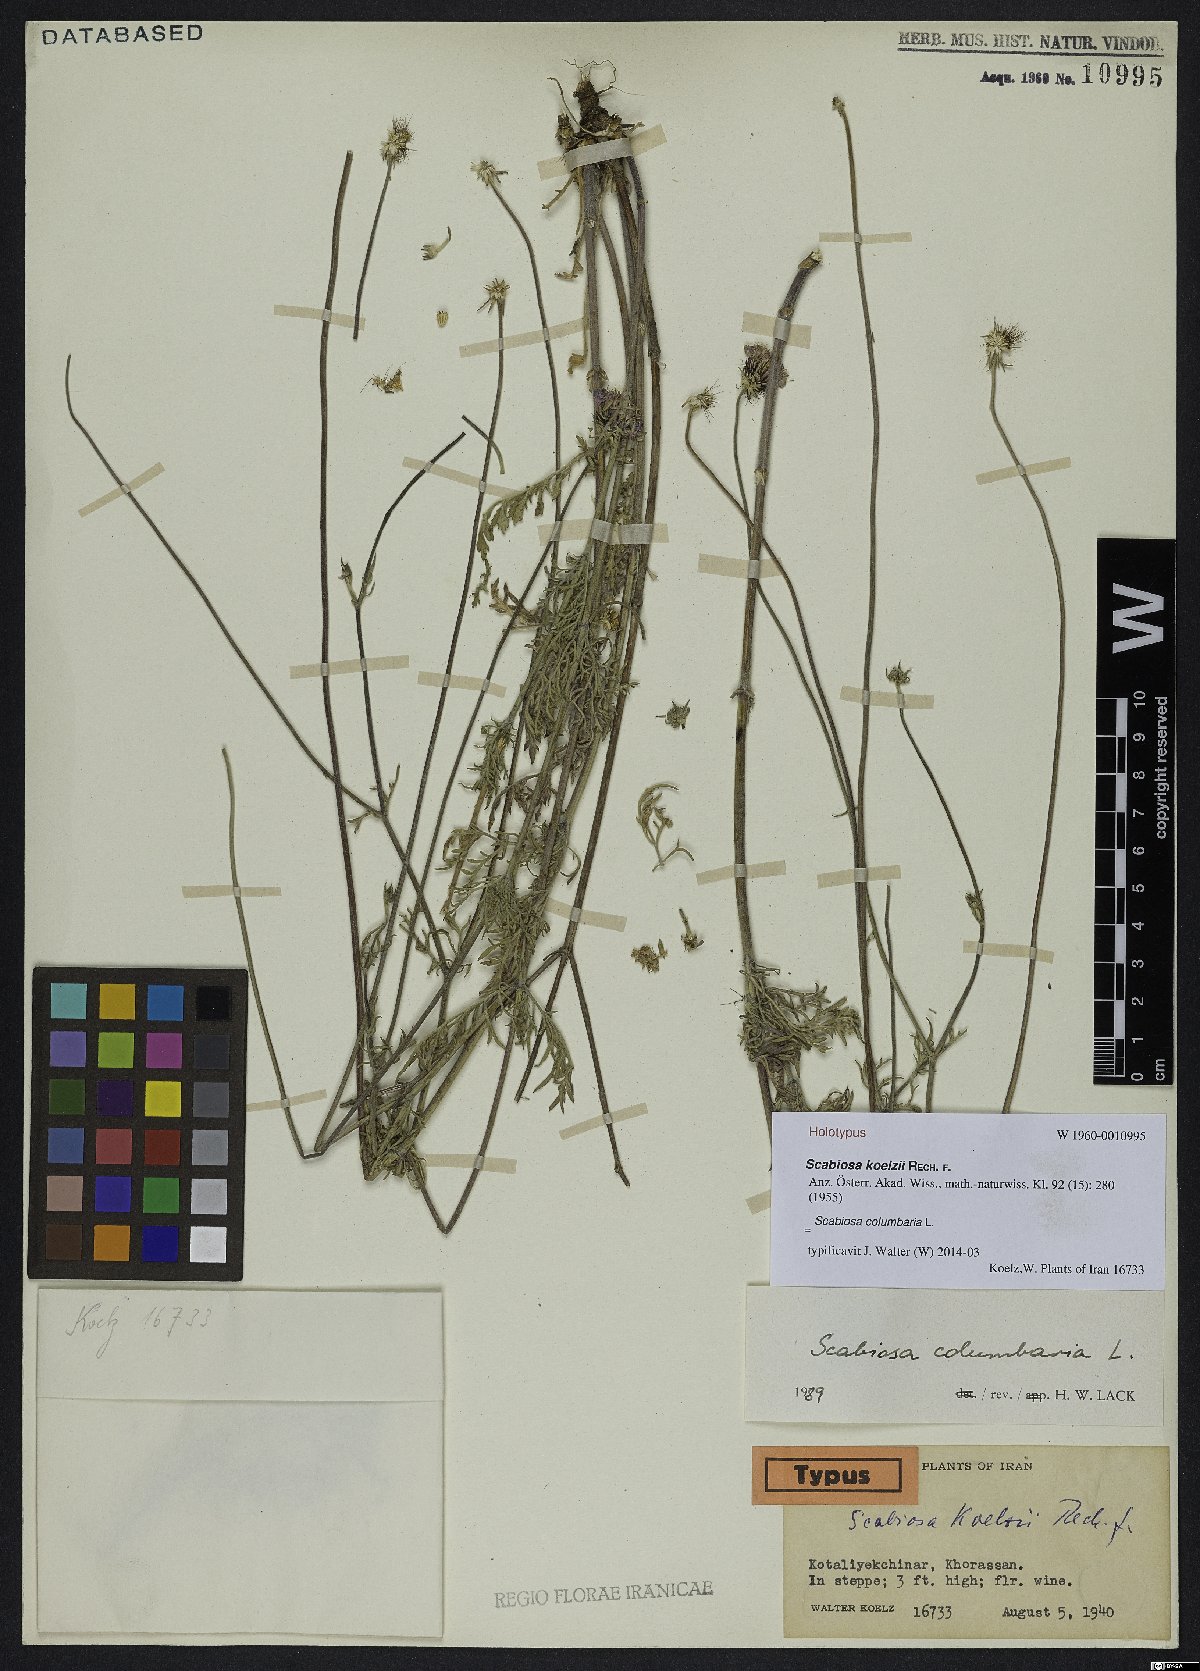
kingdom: Plantae
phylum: Tracheophyta
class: Magnoliopsida
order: Dipsacales
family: Caprifoliaceae
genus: Scabiosa
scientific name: Scabiosa columbaria
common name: Small scabious
